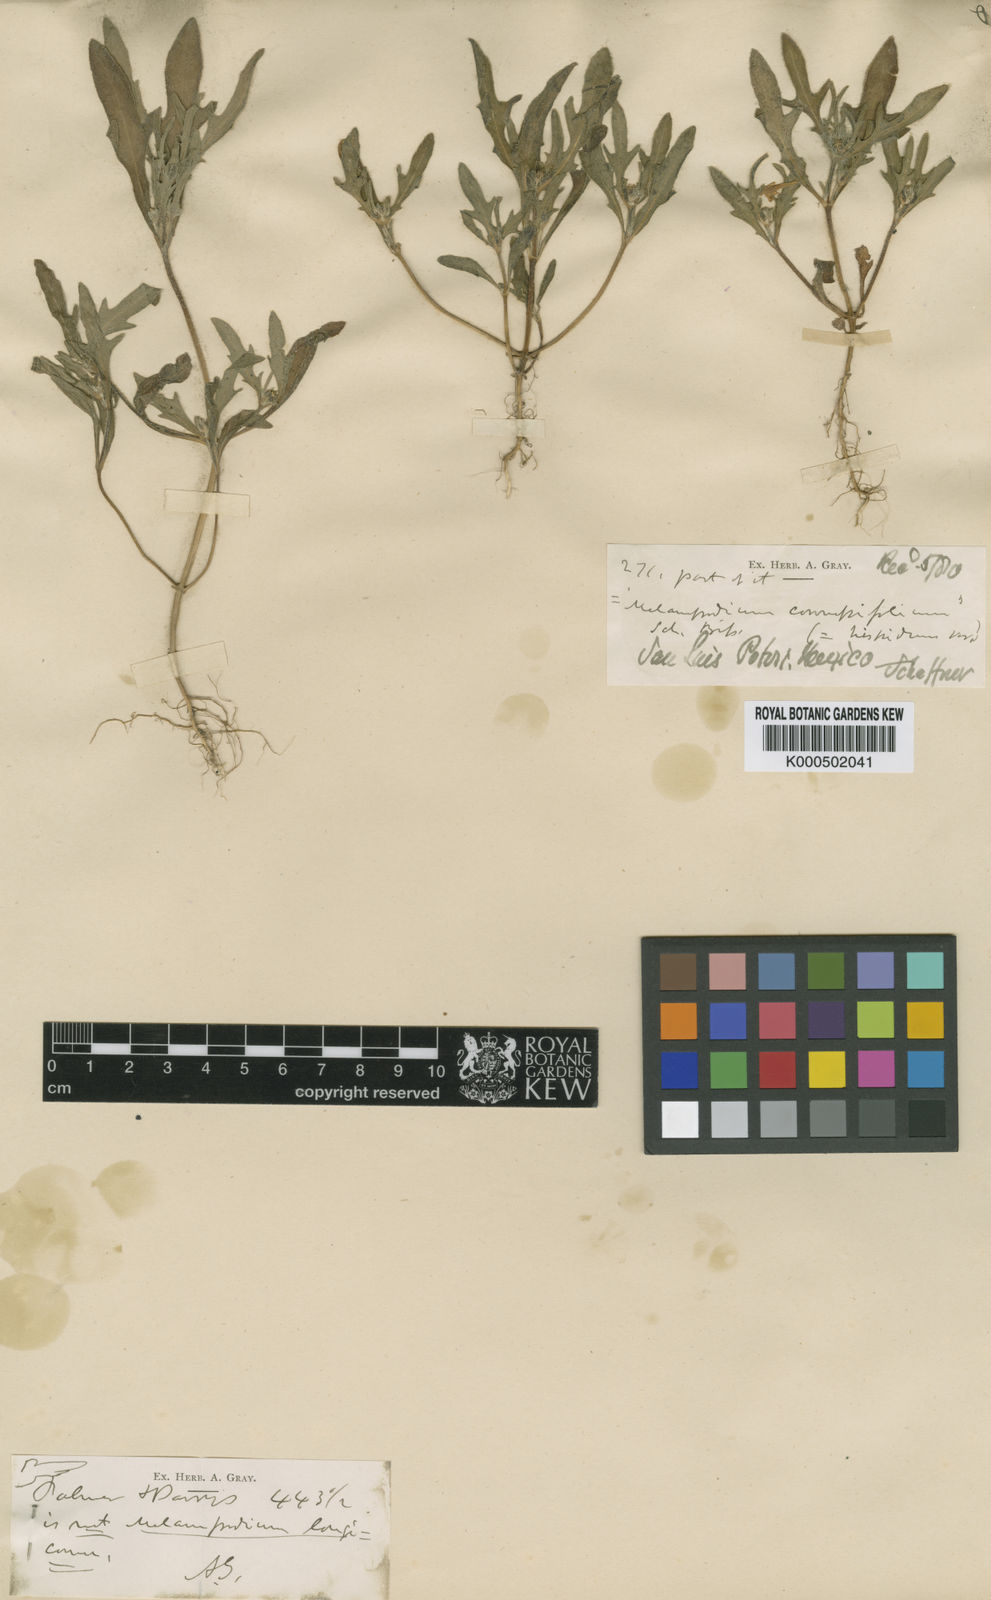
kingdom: Plantae
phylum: Tracheophyta
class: Magnoliopsida
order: Asterales
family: Asteraceae
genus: Melampodium
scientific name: Melampodium strigosum
